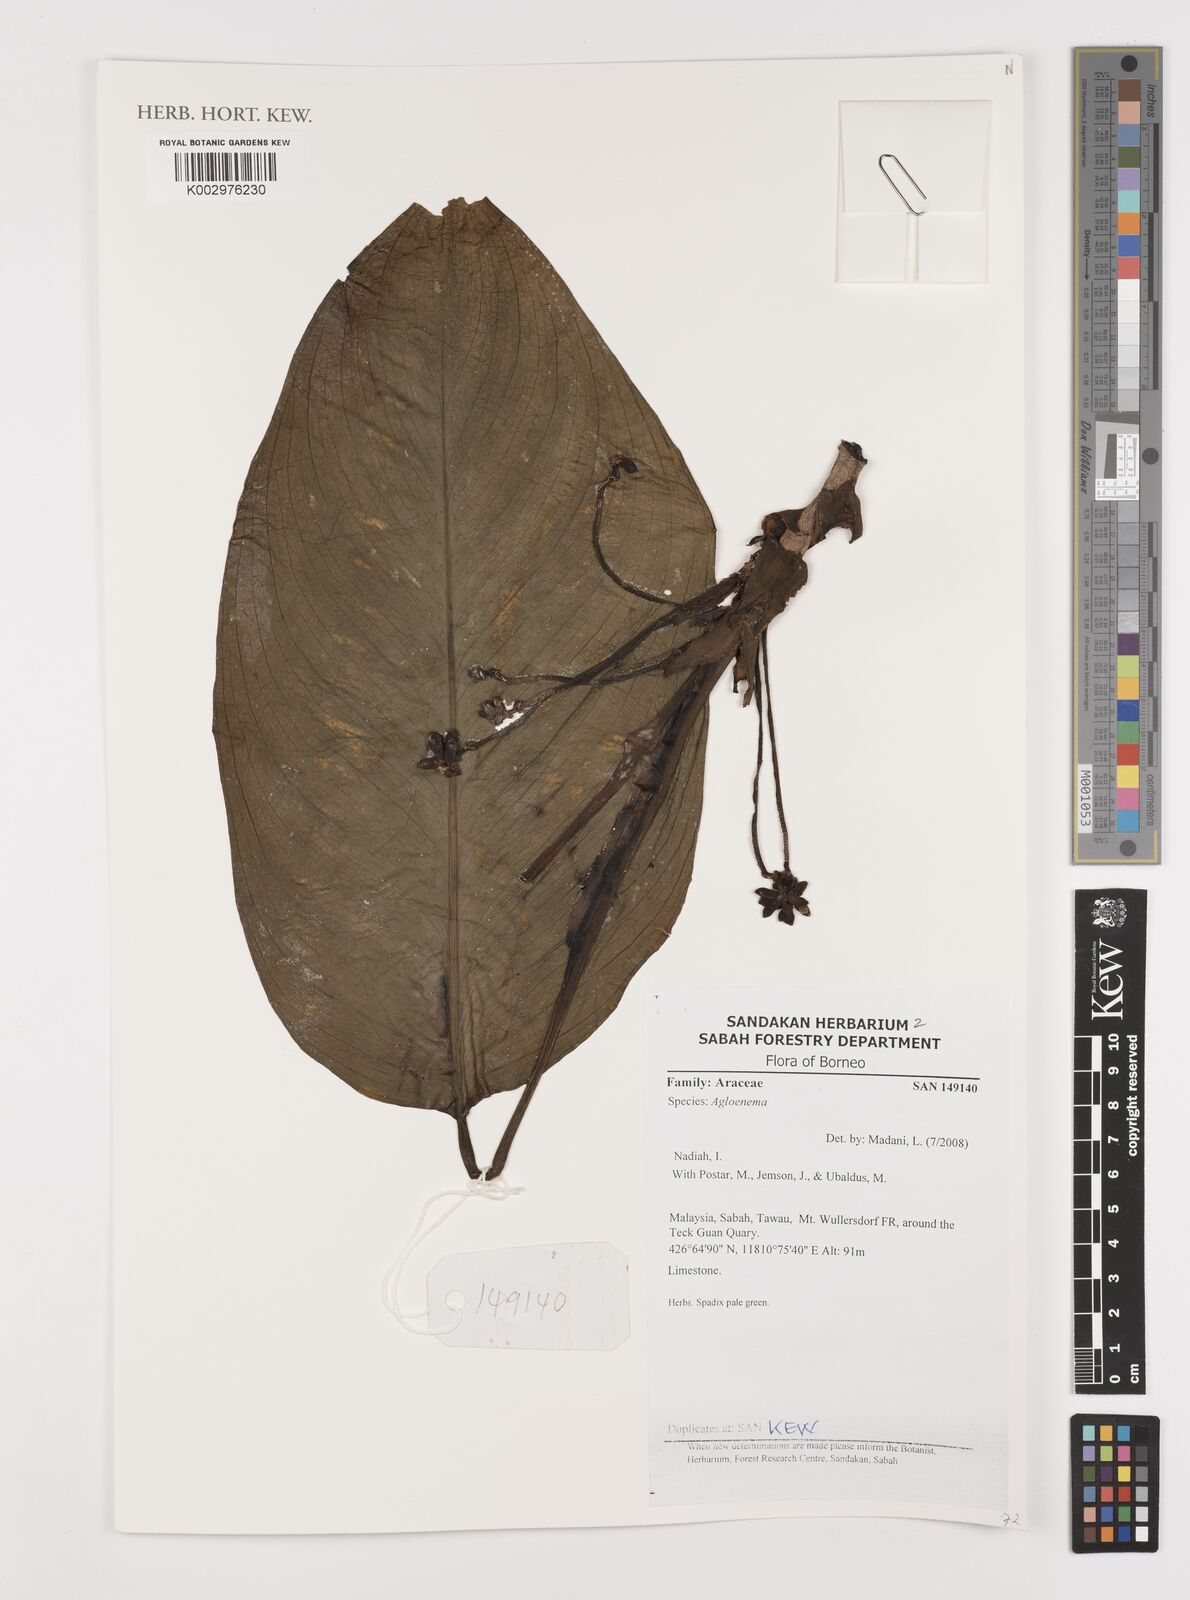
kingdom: Plantae
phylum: Tracheophyta
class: Liliopsida
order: Alismatales
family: Araceae
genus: Aglaonema
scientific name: Aglaonema
